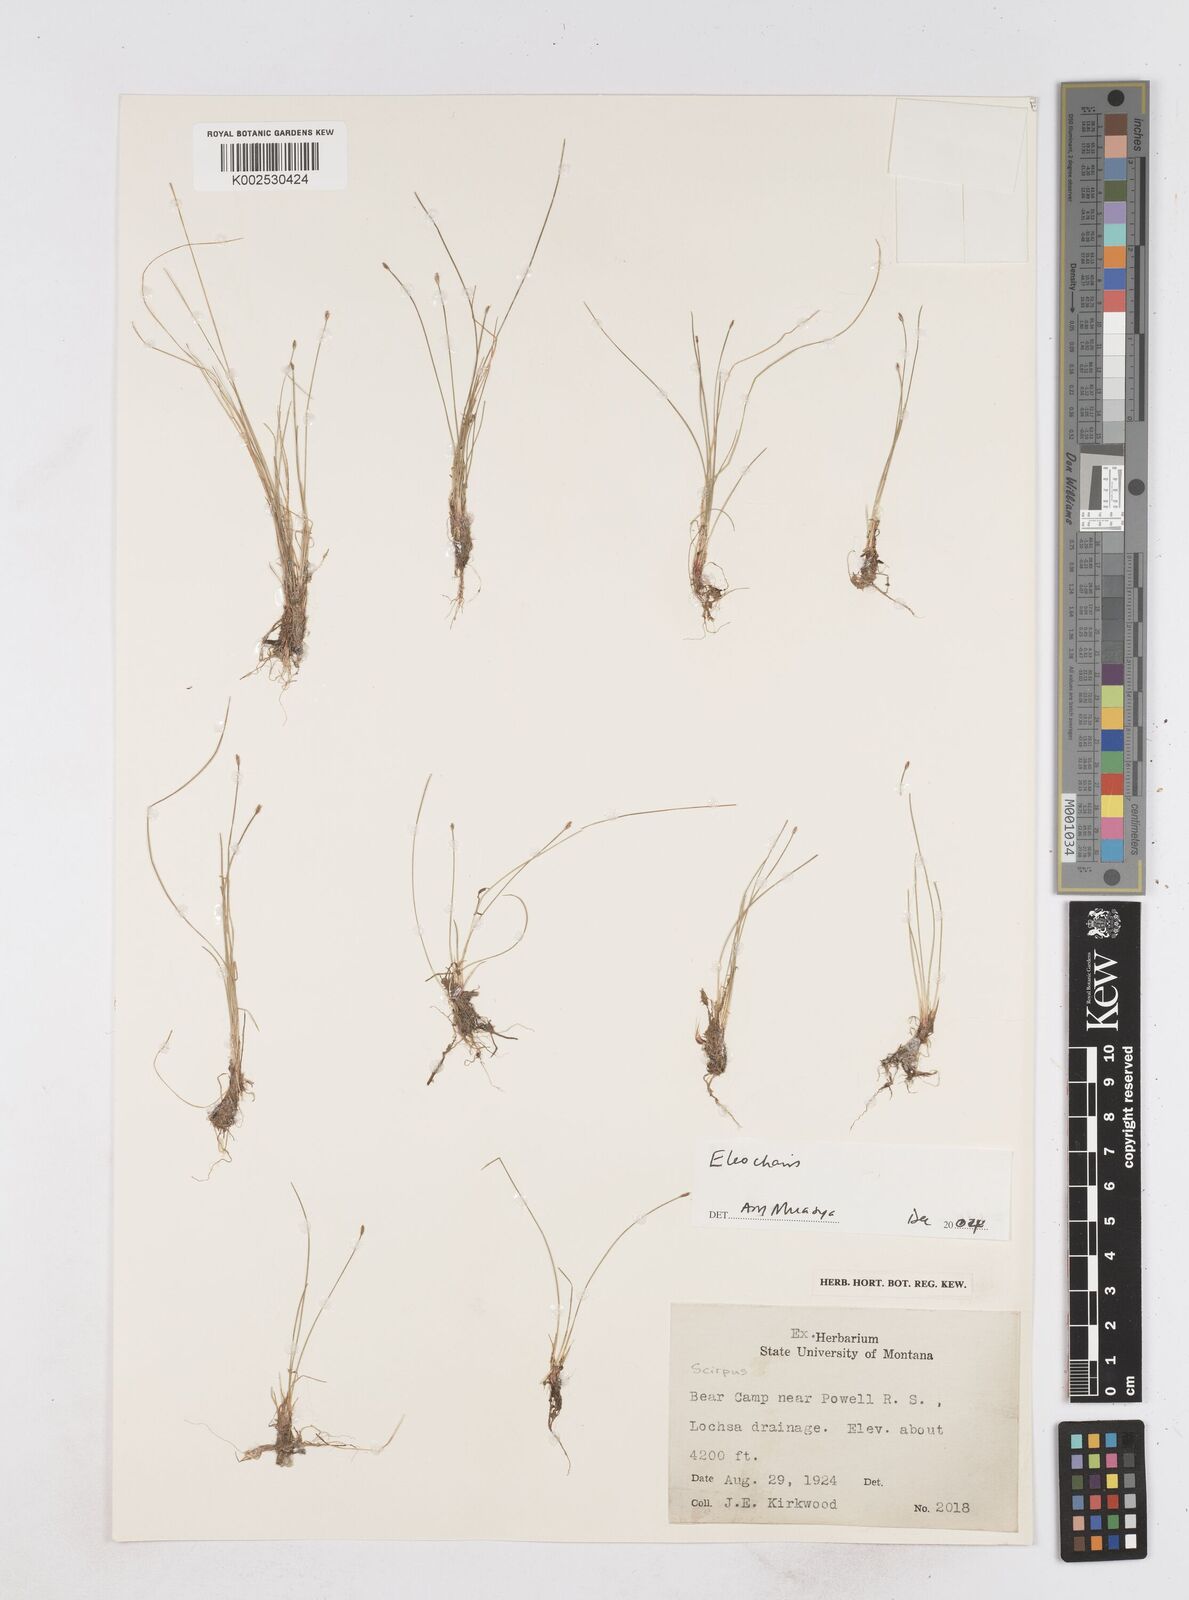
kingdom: Plantae
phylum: Tracheophyta
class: Liliopsida
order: Poales
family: Cyperaceae
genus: Eleocharis
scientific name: Eleocharis
